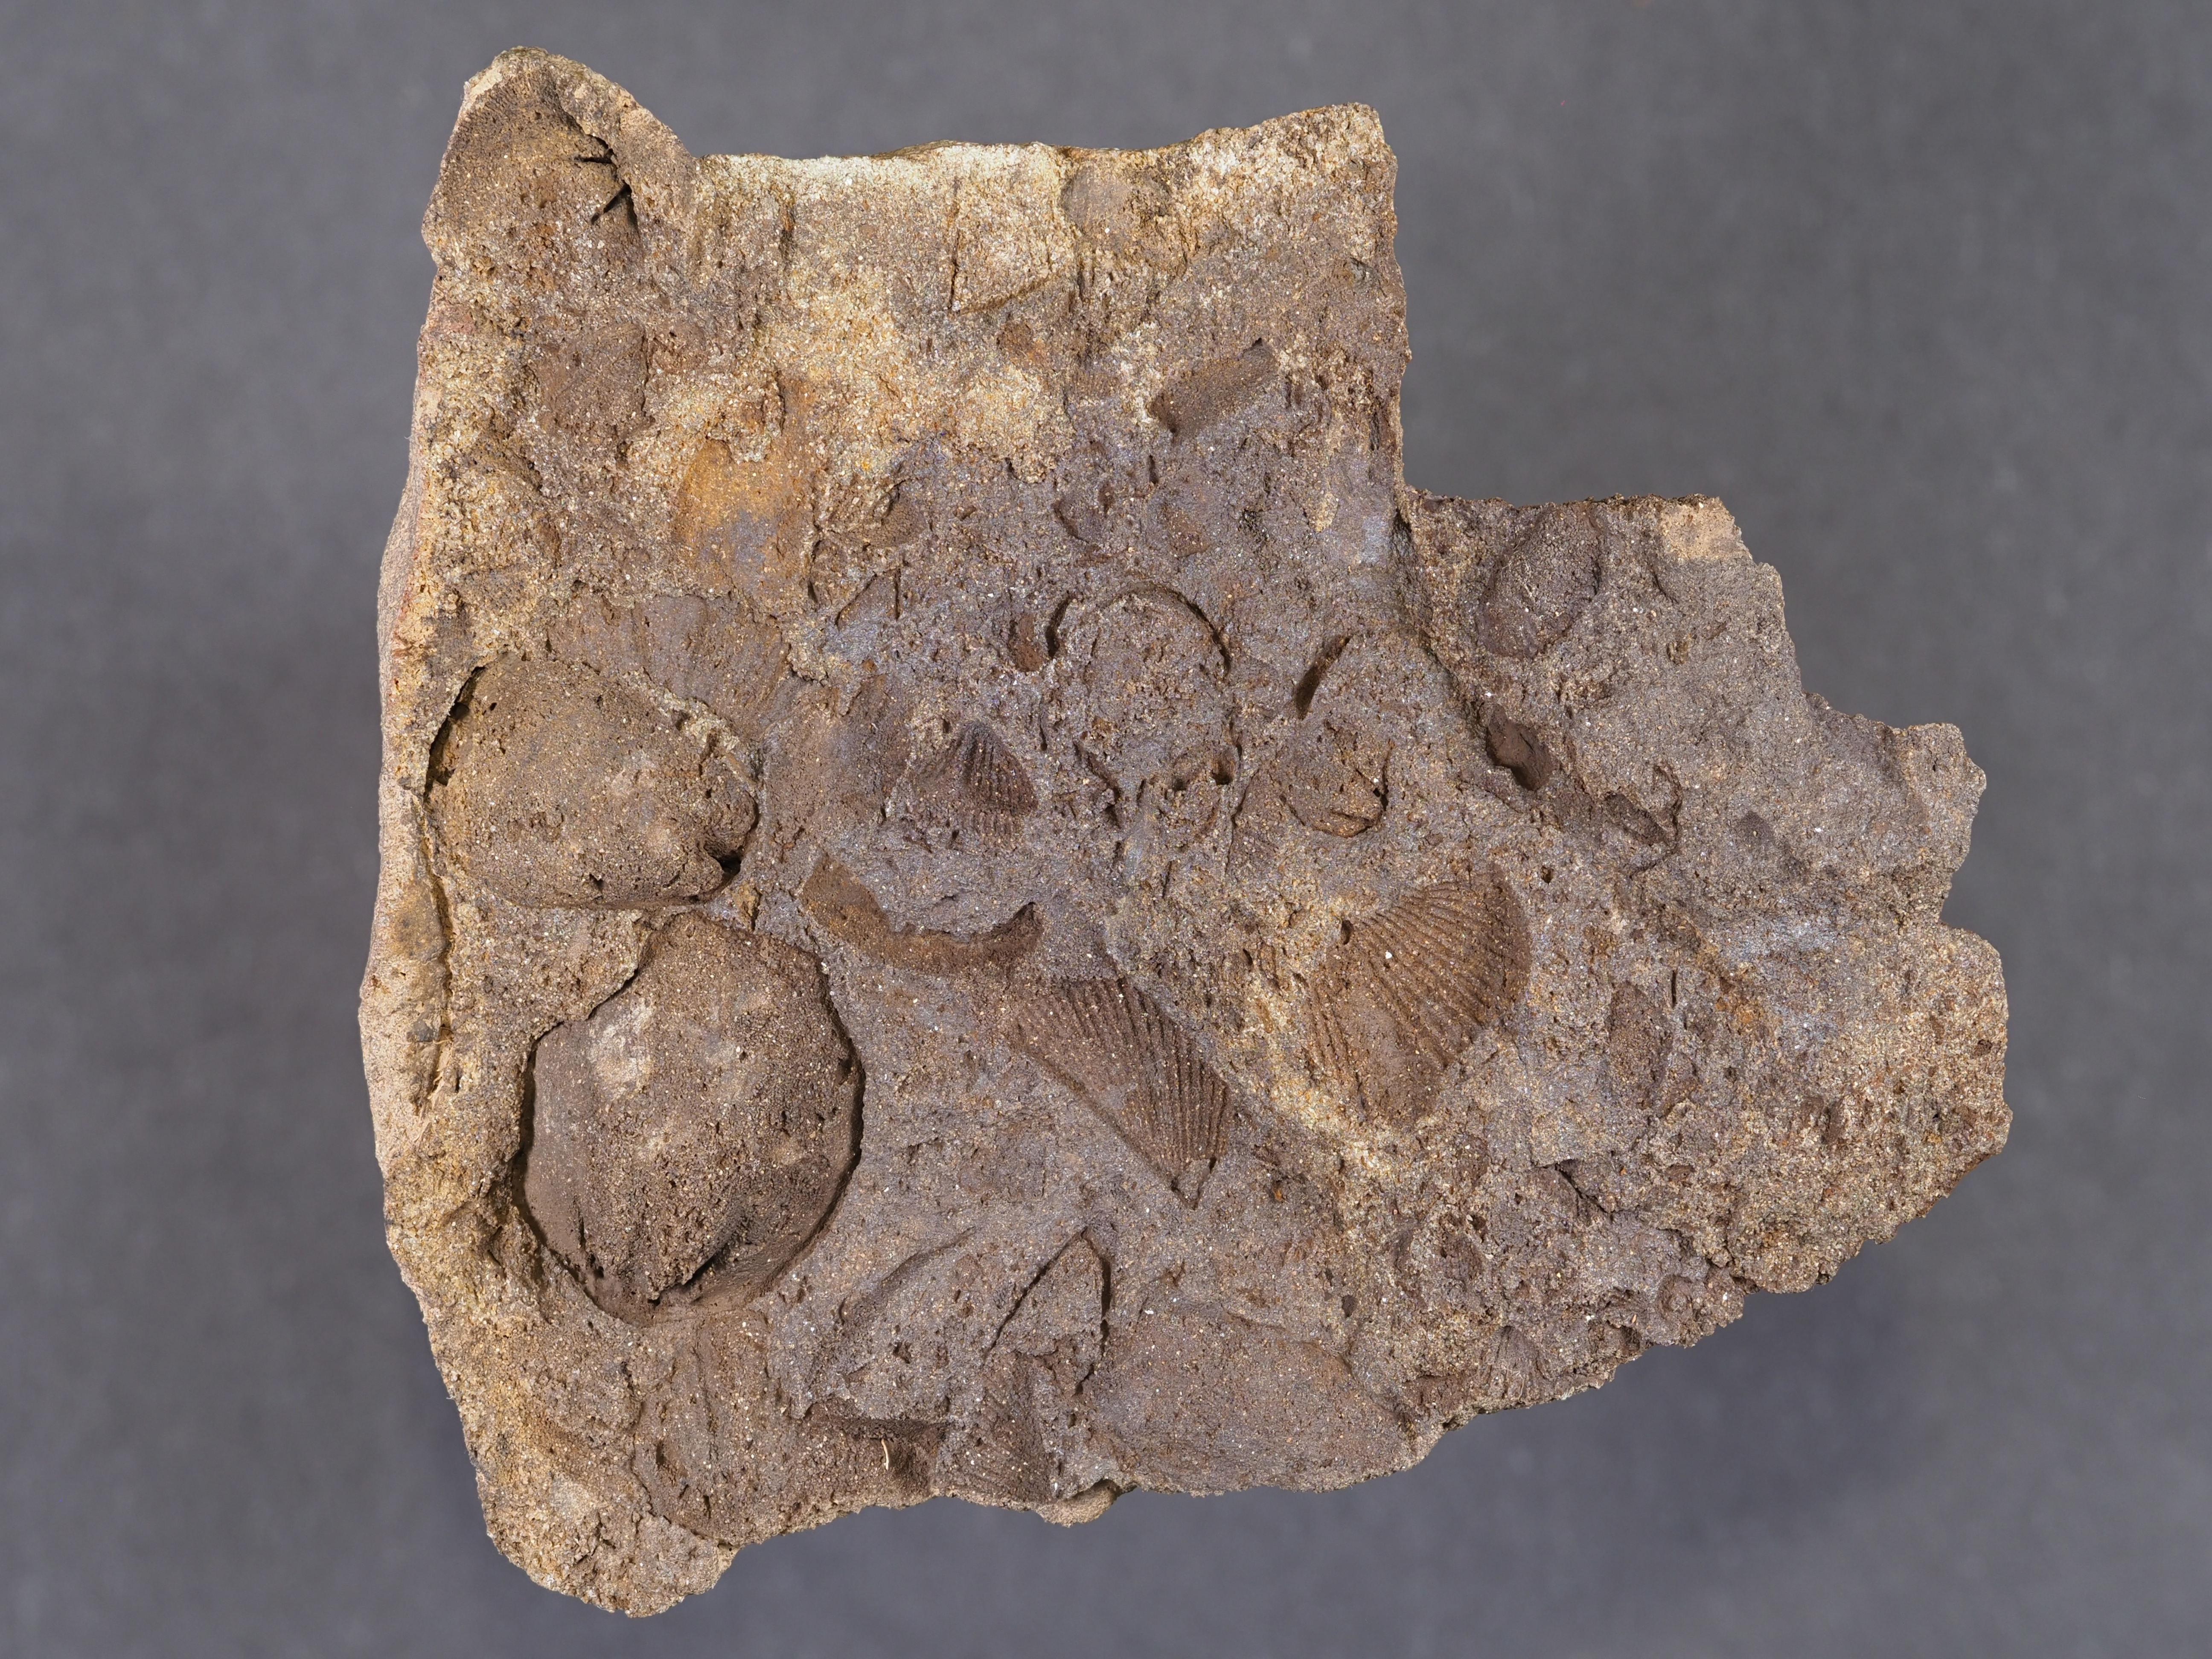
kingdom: Animalia
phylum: Mollusca
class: Bivalvia
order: Modiomorphida
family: Modiomorphidae
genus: Goniomorpha
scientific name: Goniomorpha
